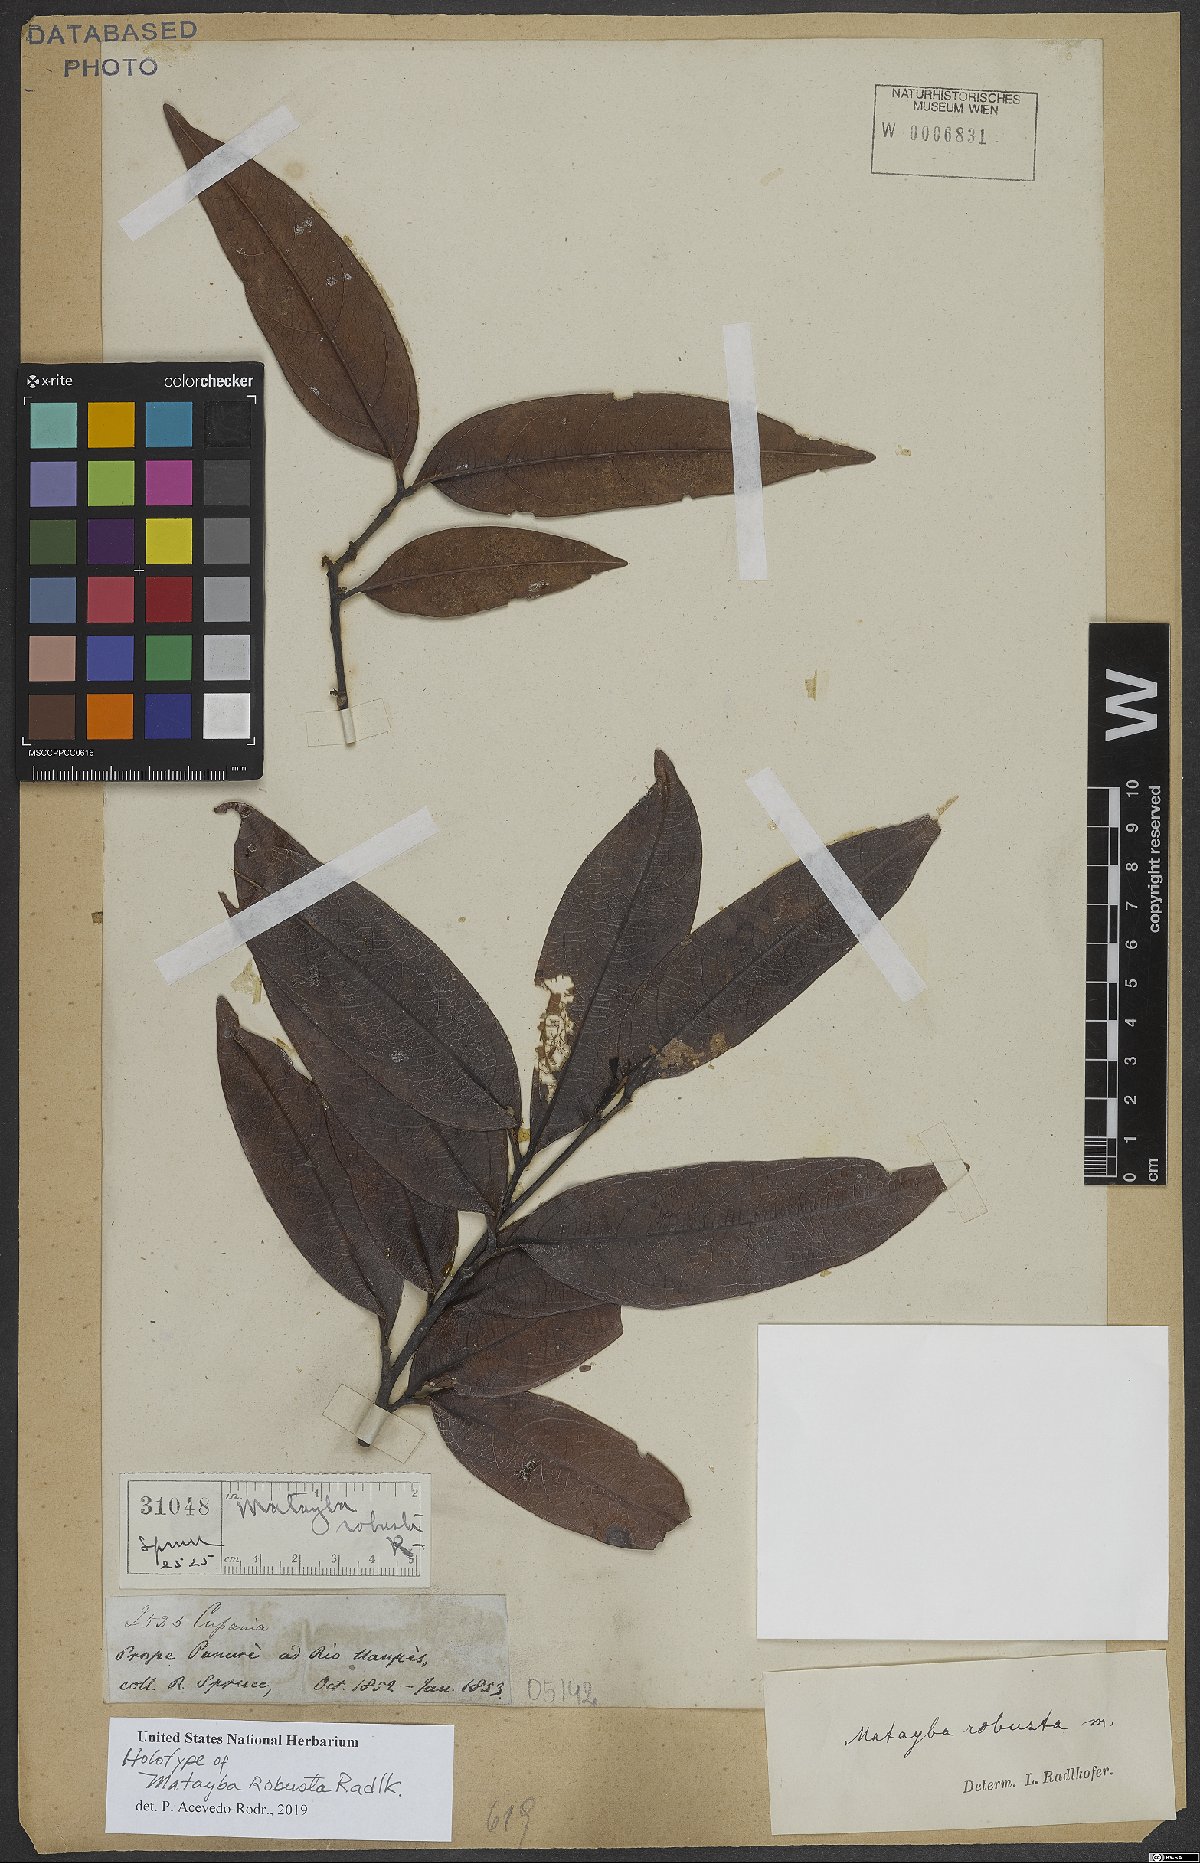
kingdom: Plantae
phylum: Tracheophyta
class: Magnoliopsida
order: Sapindales
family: Sapindaceae
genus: Matayba
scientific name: Matayba robusta
